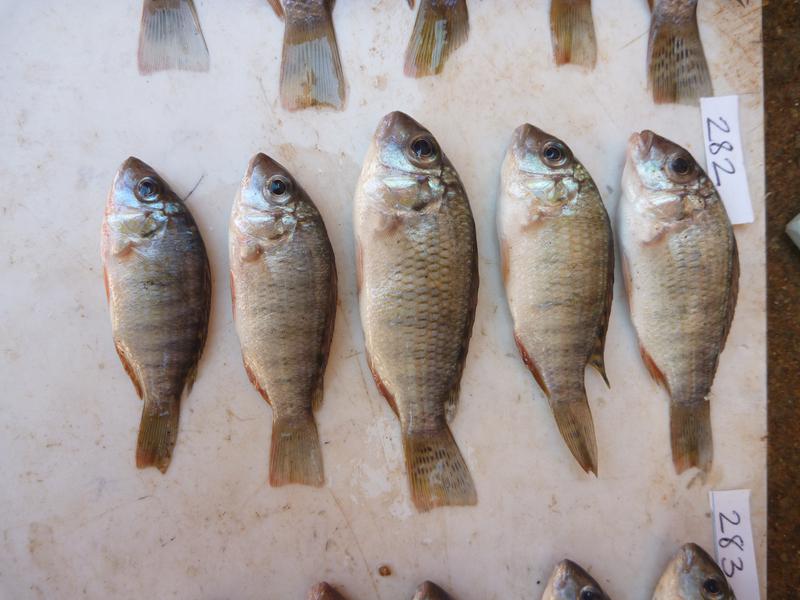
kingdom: Animalia
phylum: Chordata
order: Perciformes
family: Cichlidae
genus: Coptodon
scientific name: Coptodon rendalli
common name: Redbreast tilapia
